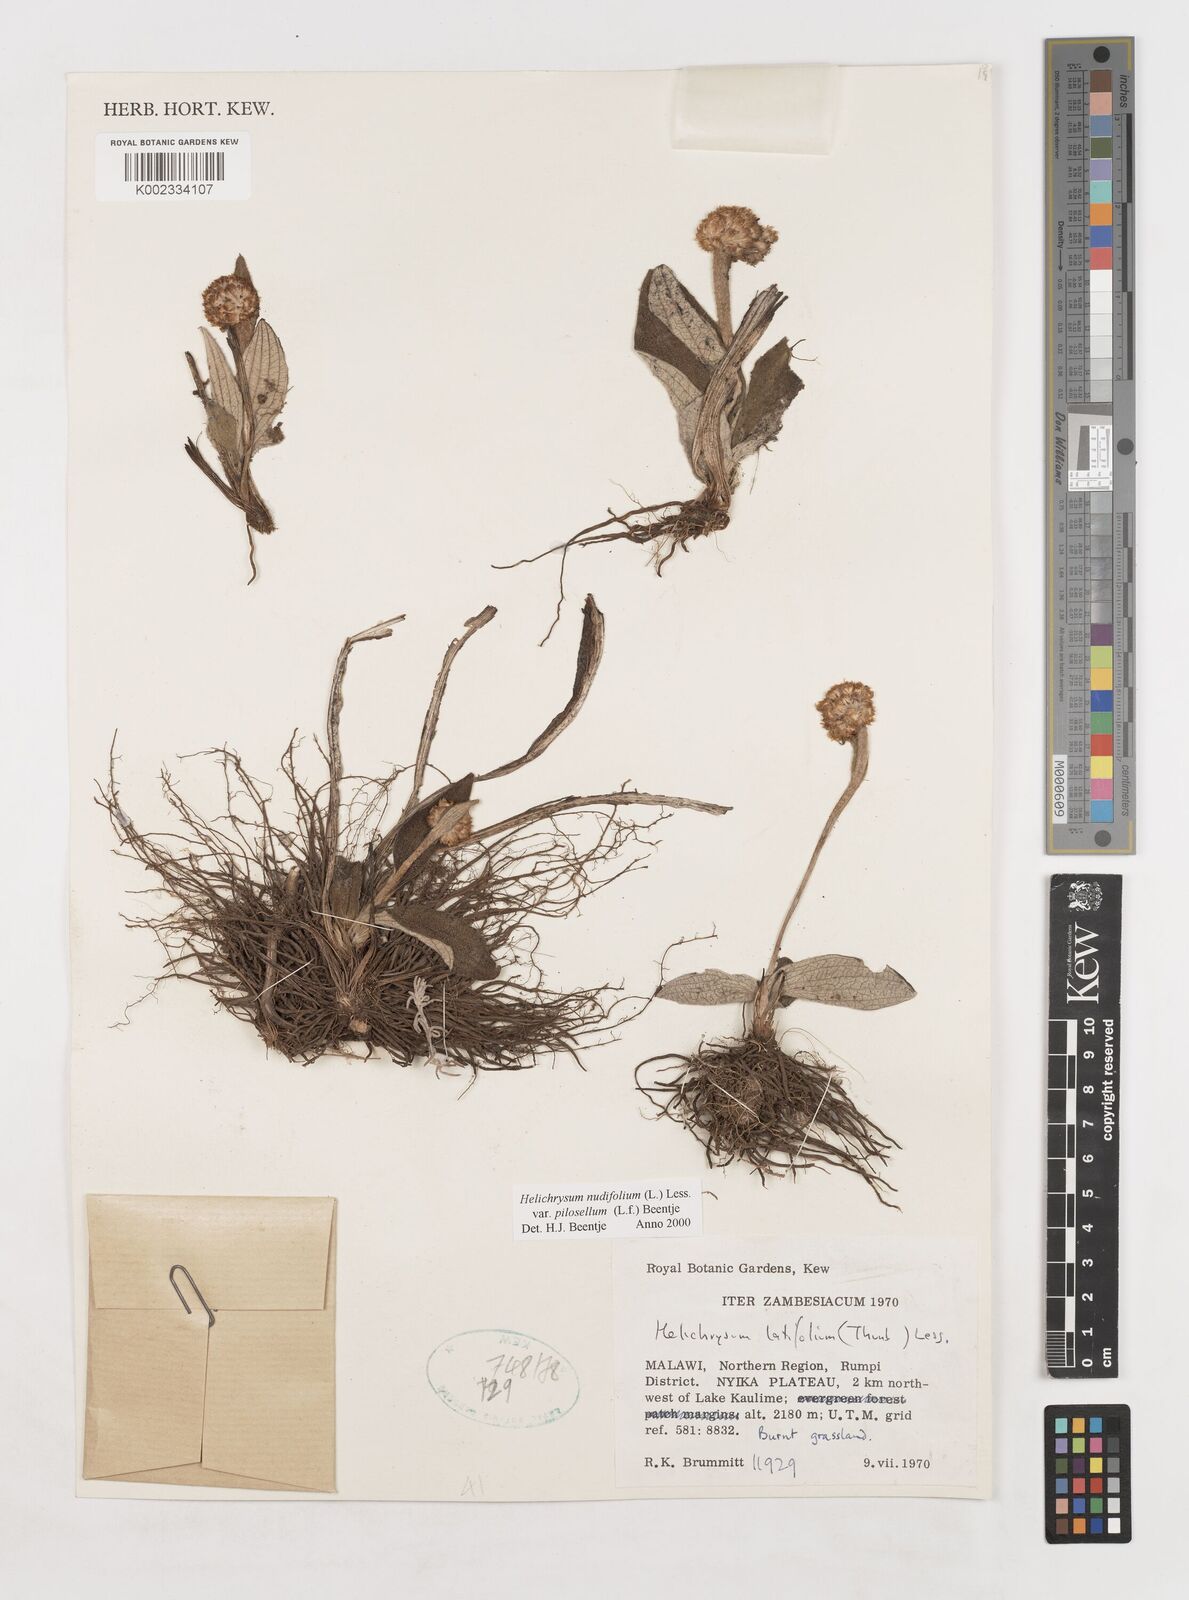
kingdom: Plantae
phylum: Tracheophyta
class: Magnoliopsida
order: Asterales
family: Asteraceae
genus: Helichrysum
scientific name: Helichrysum nudifolium
